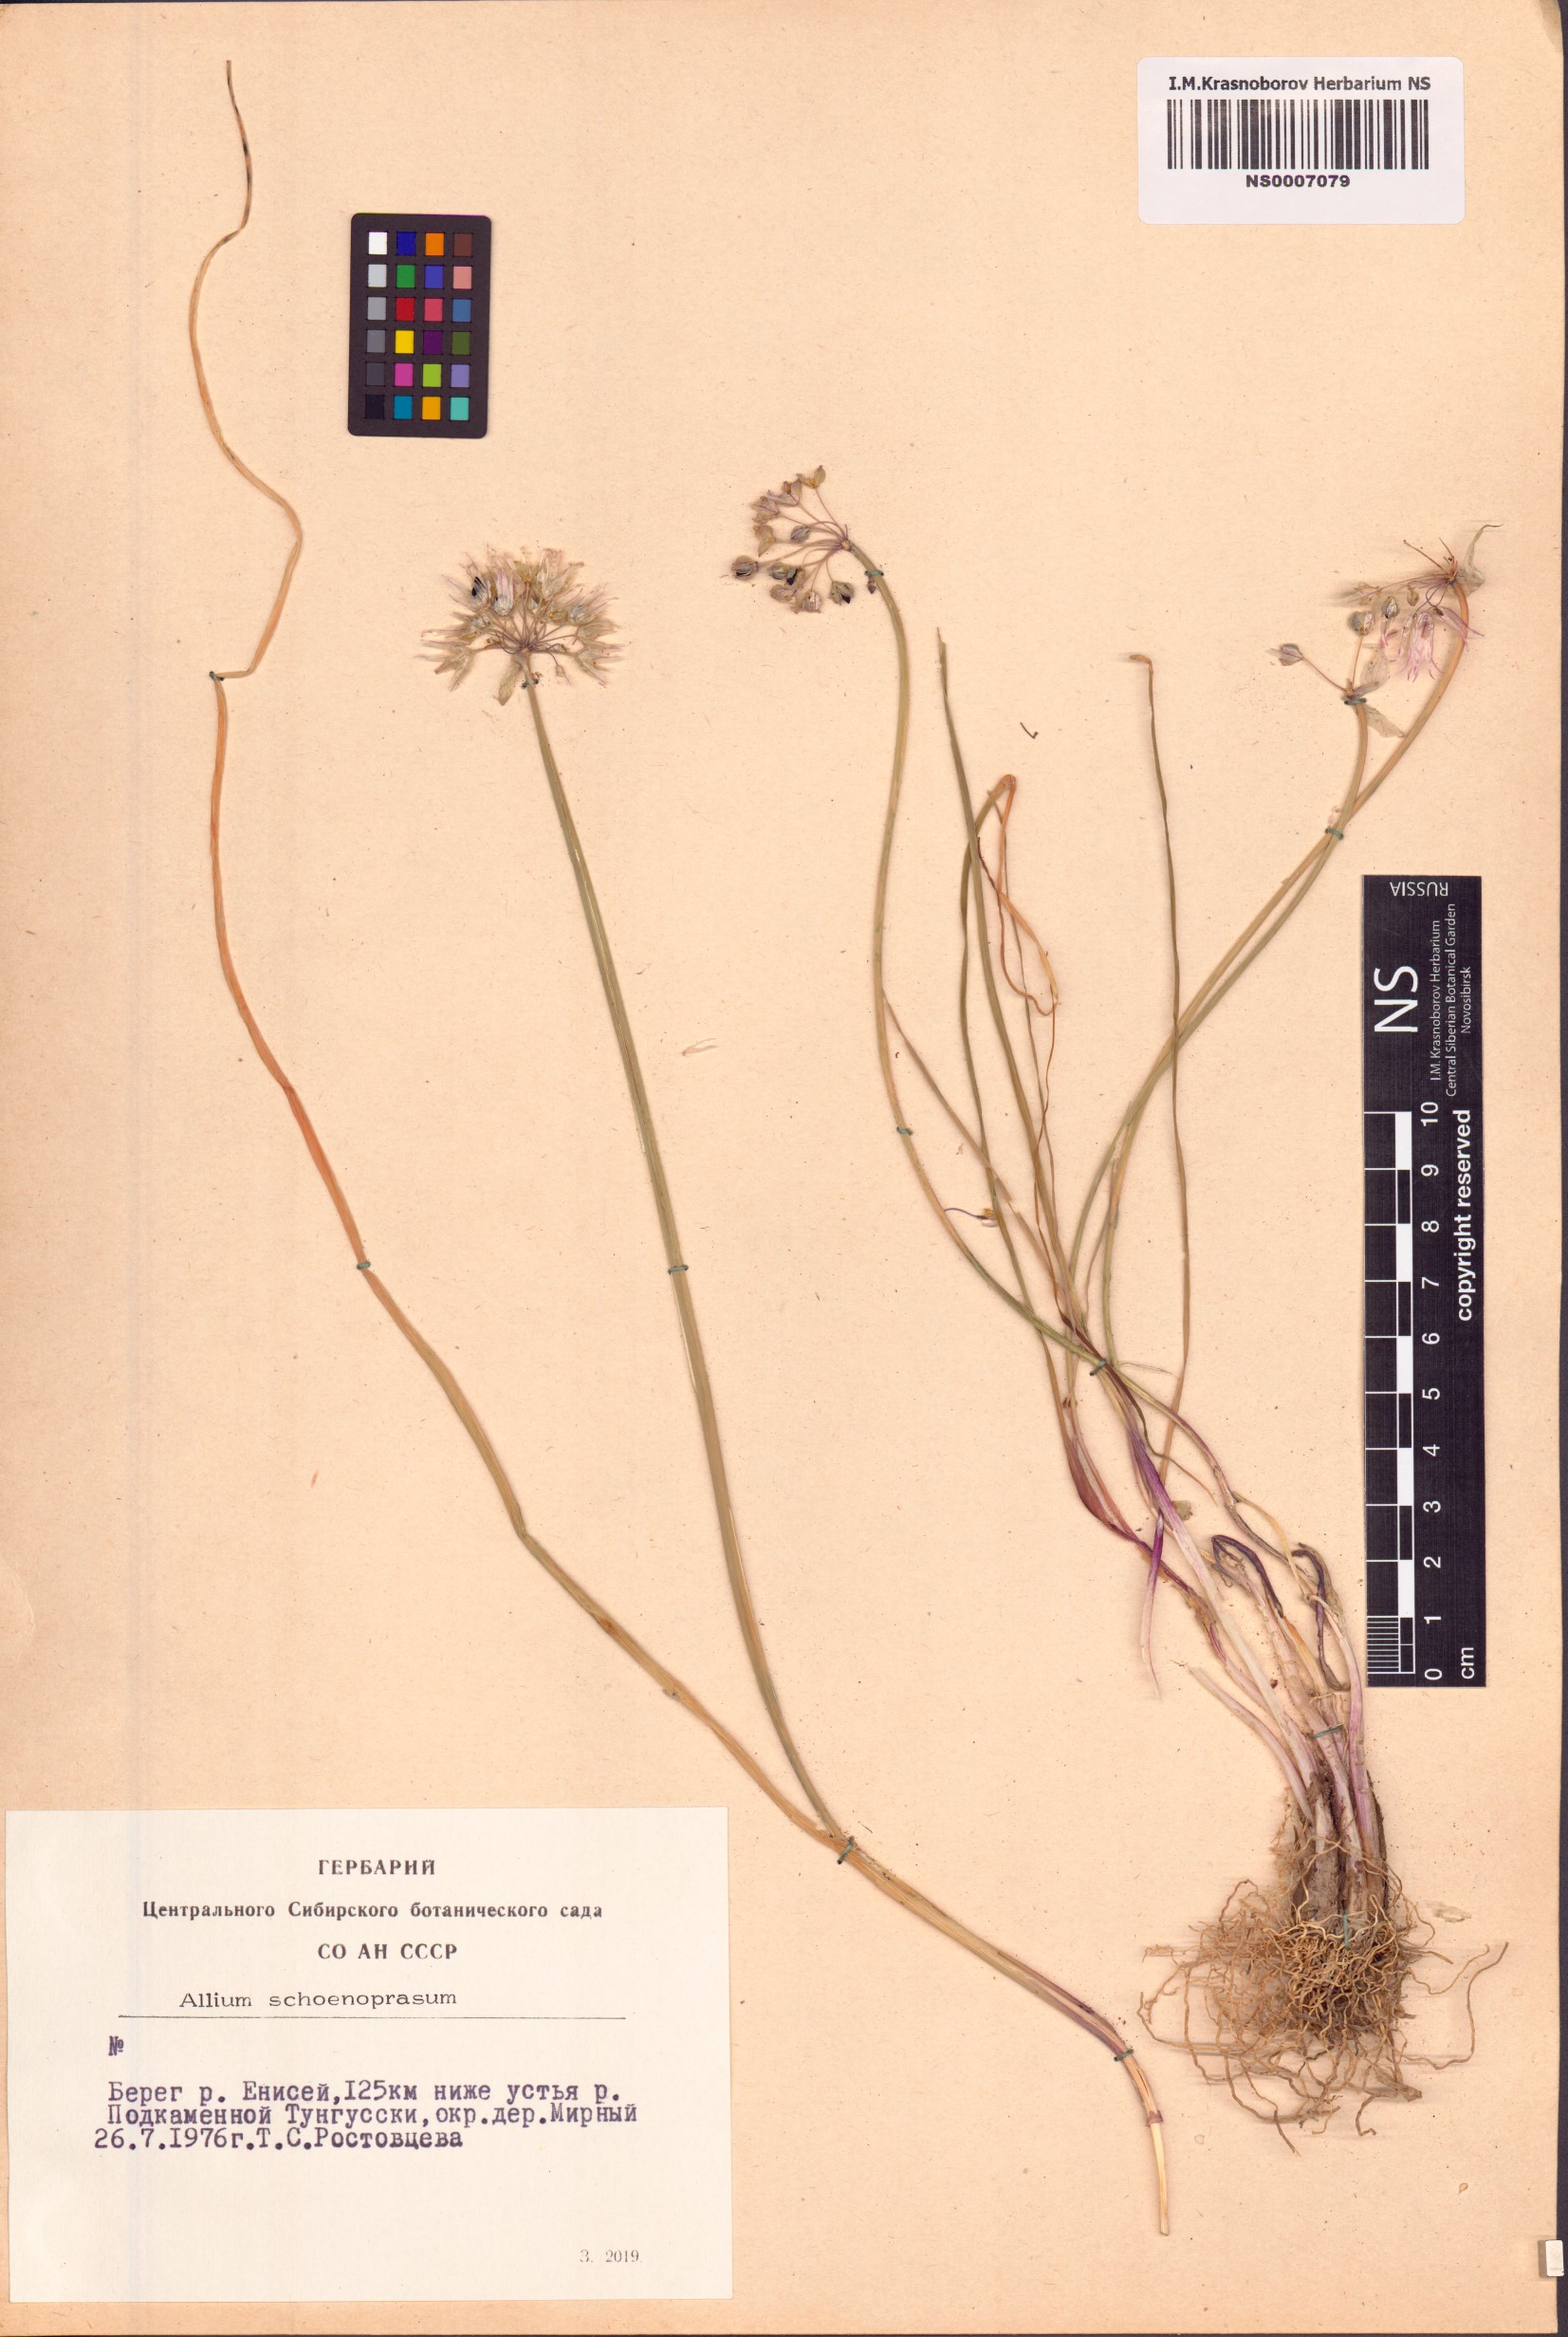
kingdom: Plantae
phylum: Tracheophyta
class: Liliopsida
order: Asparagales
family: Amaryllidaceae
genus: Allium
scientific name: Allium schoenoprasum
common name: Chives
